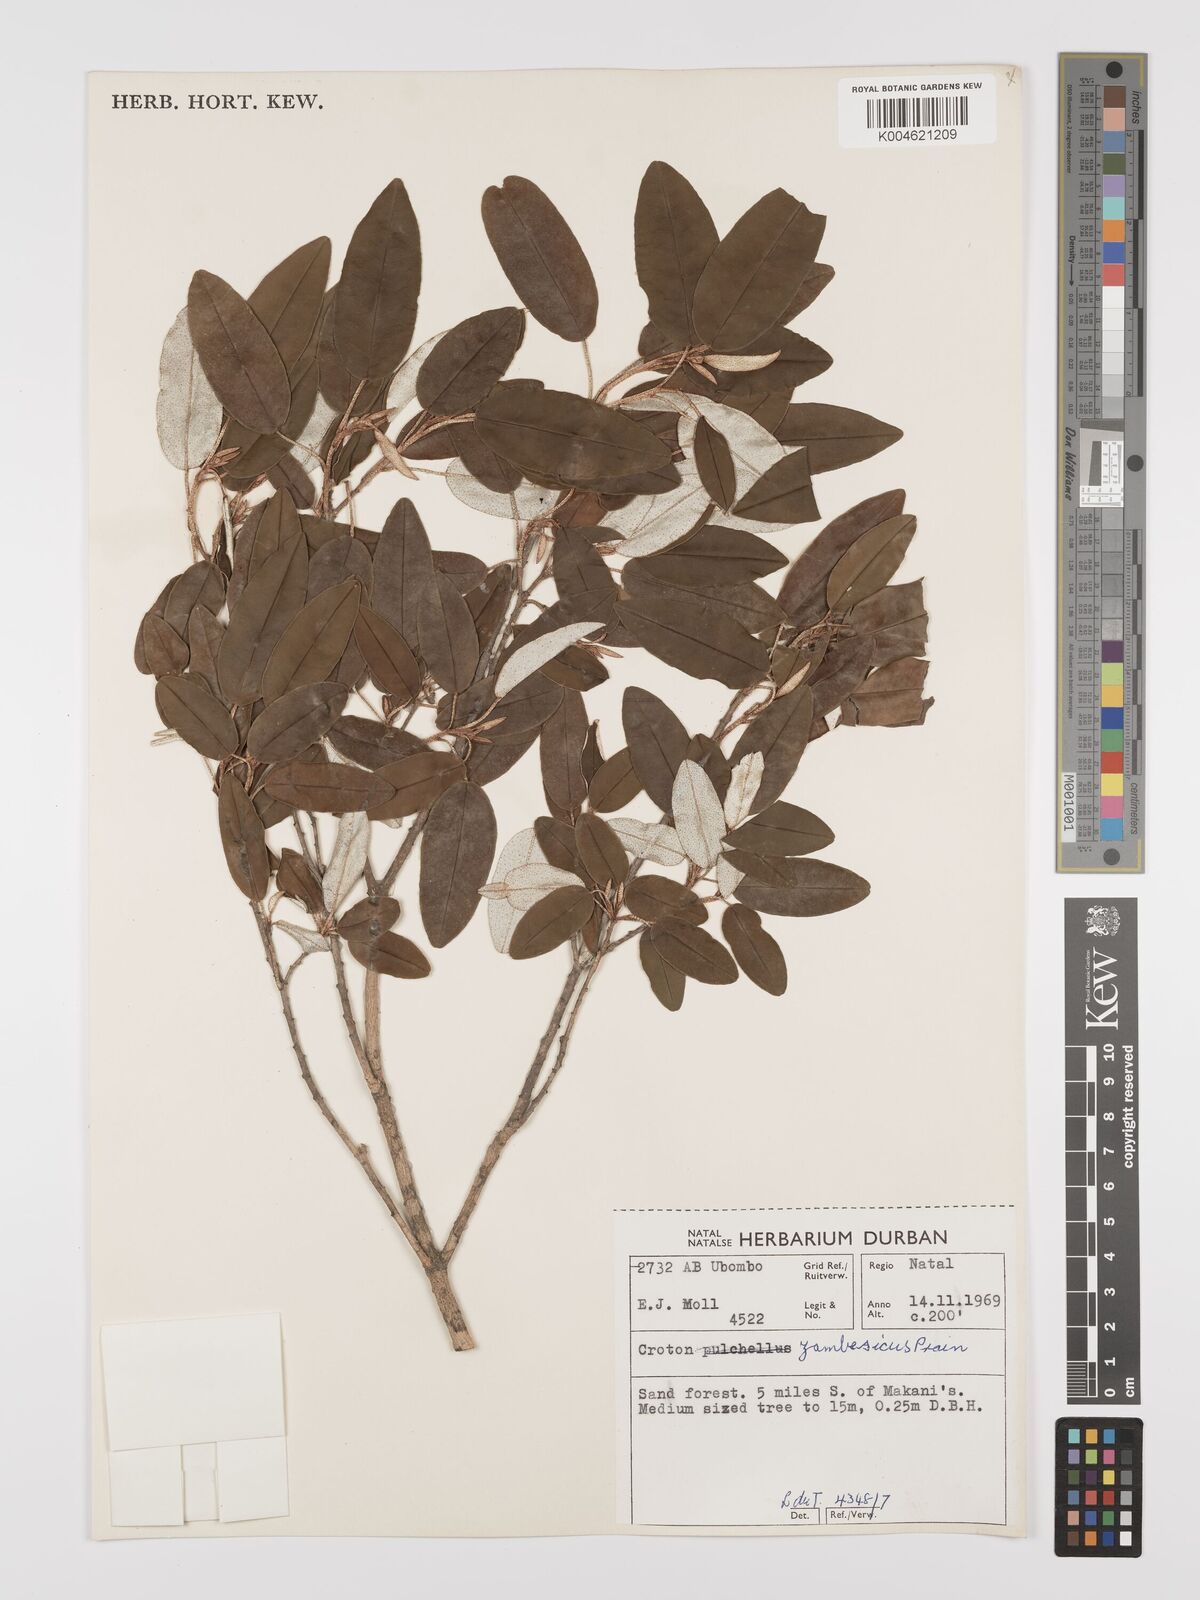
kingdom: Plantae
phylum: Tracheophyta
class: Magnoliopsida
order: Malpighiales
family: Euphorbiaceae
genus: Croton
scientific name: Croton gratissimus
